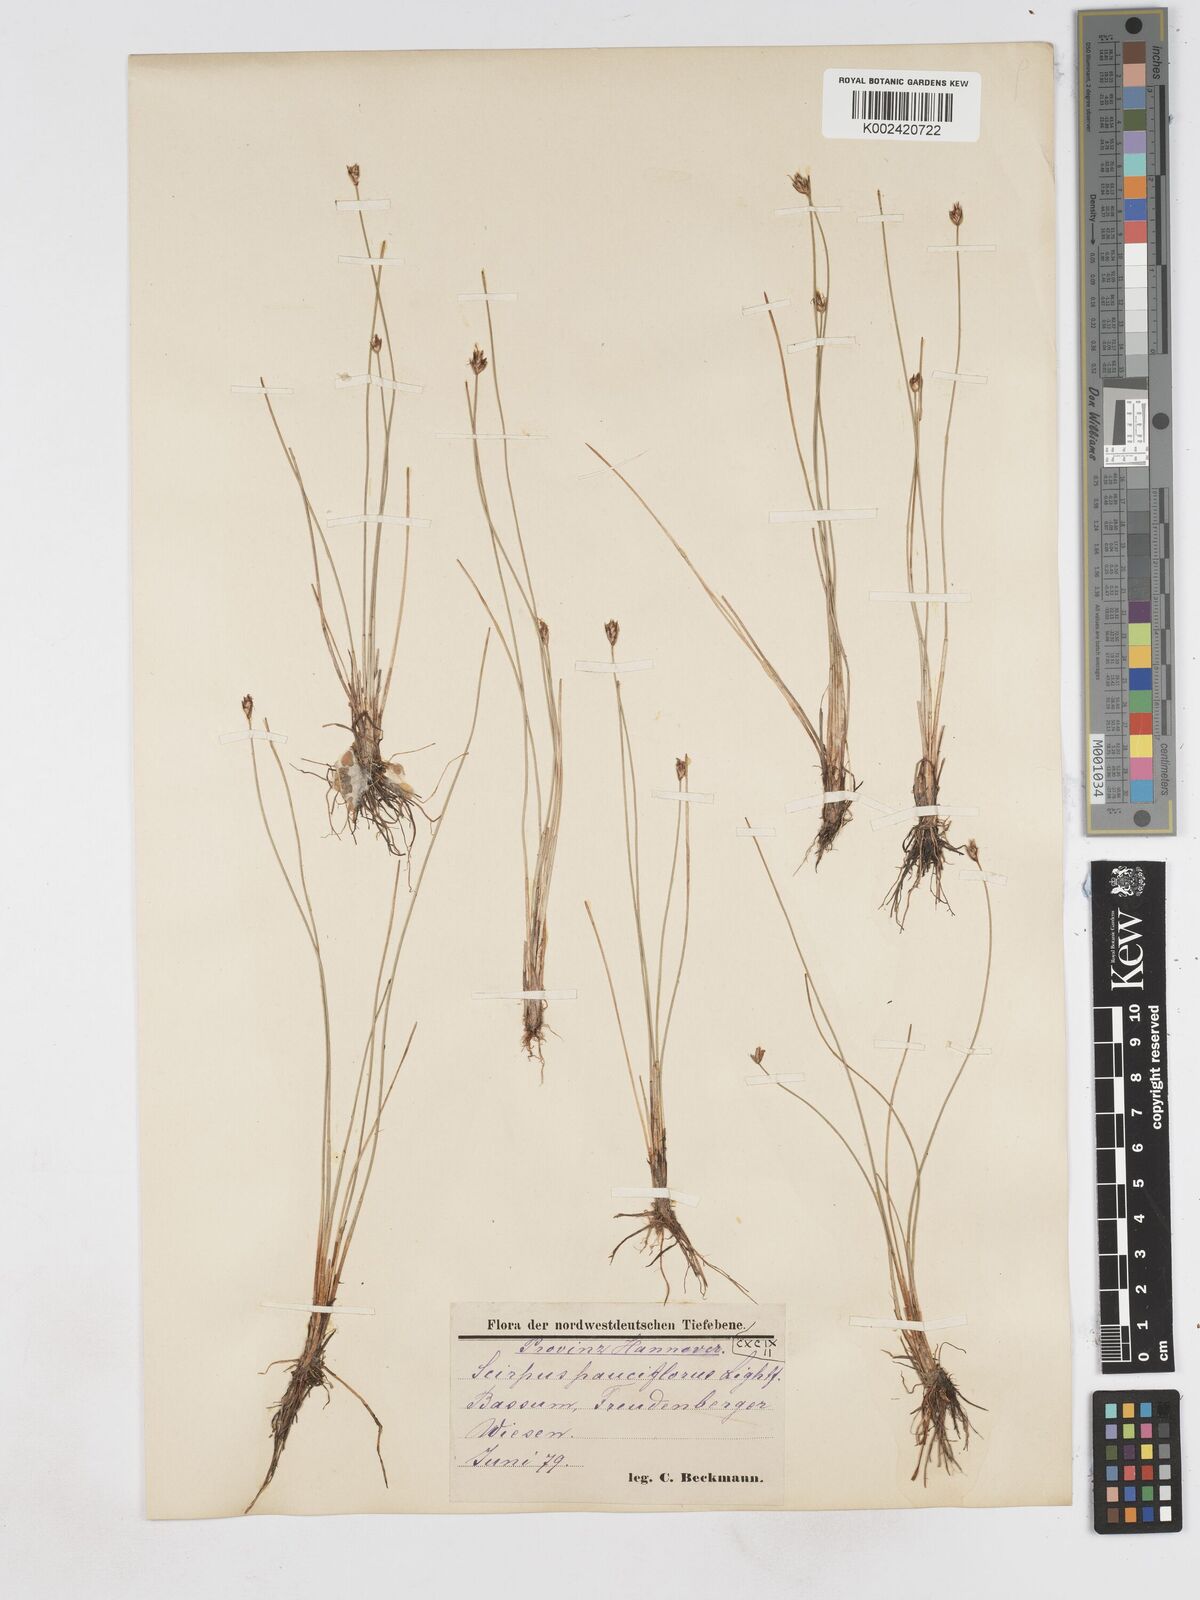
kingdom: Plantae
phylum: Tracheophyta
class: Liliopsida
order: Poales
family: Cyperaceae
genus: Eleocharis
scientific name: Eleocharis quinqueflora
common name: Few-flowered spike-rush
